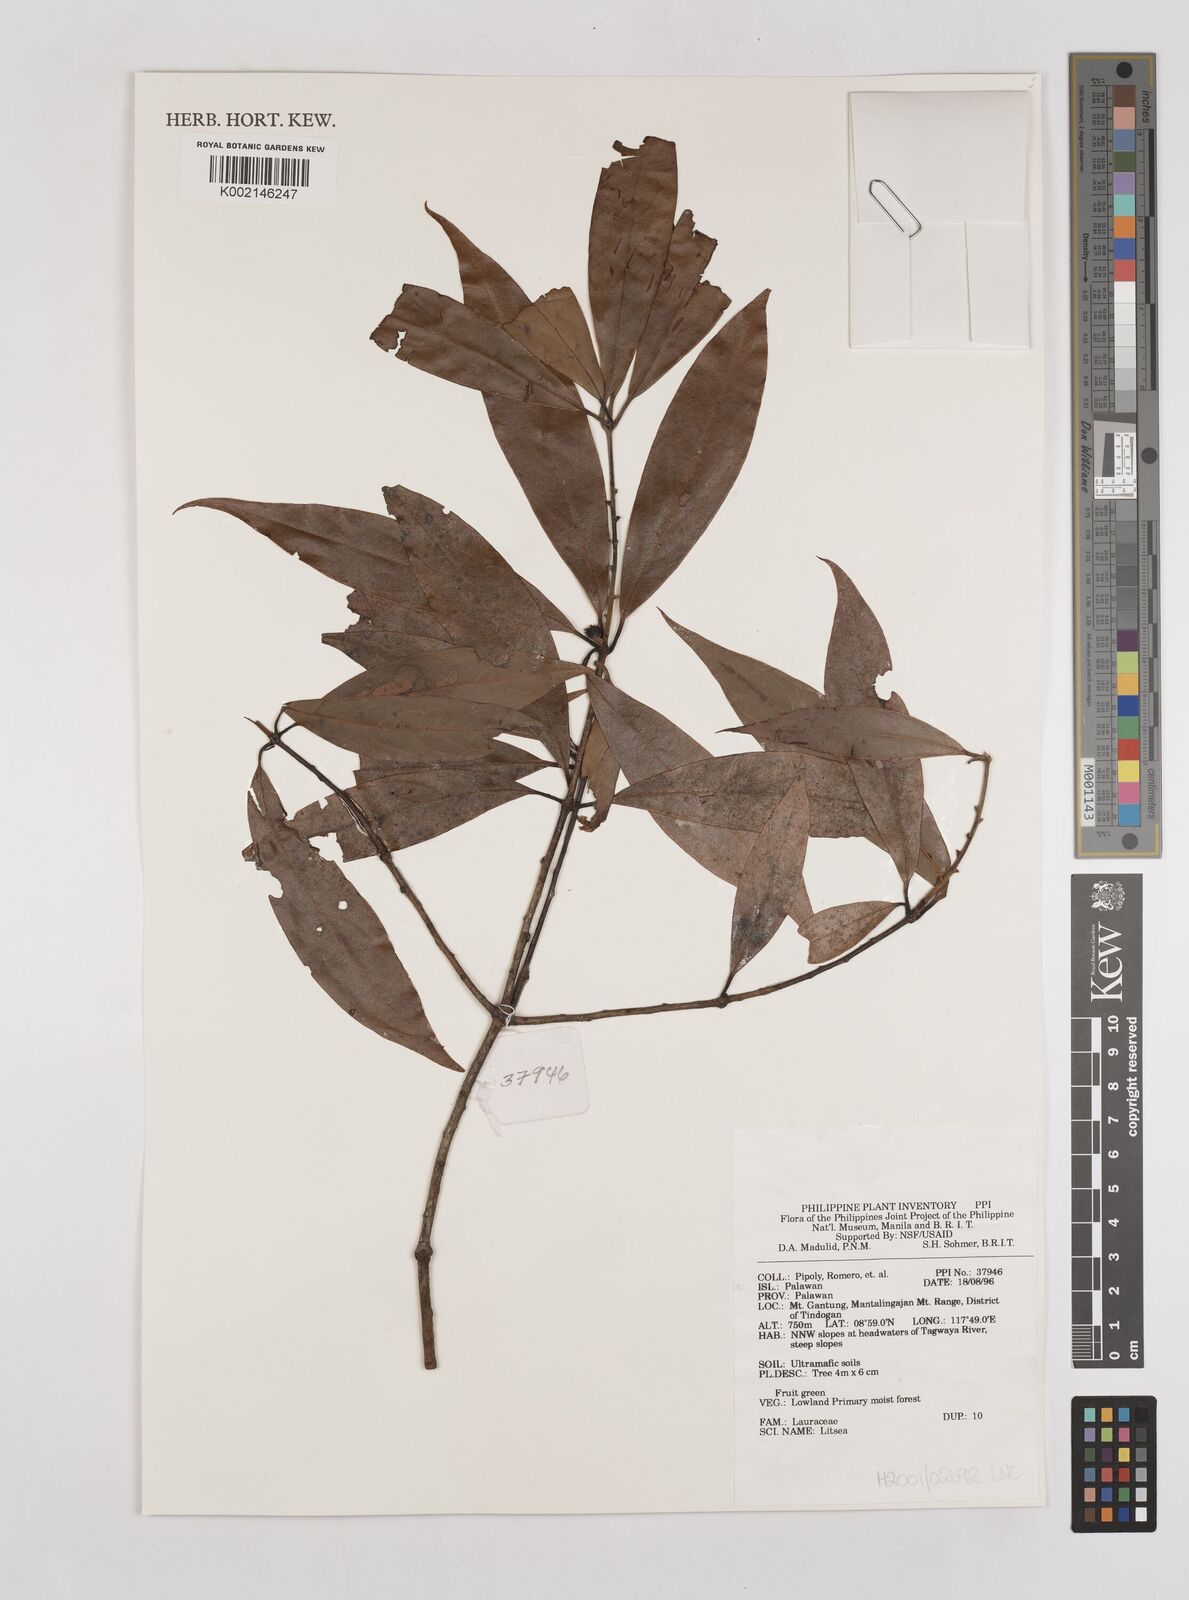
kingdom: Plantae
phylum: Tracheophyta
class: Magnoliopsida
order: Laurales
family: Lauraceae
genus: Litsea
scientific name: Litsea
